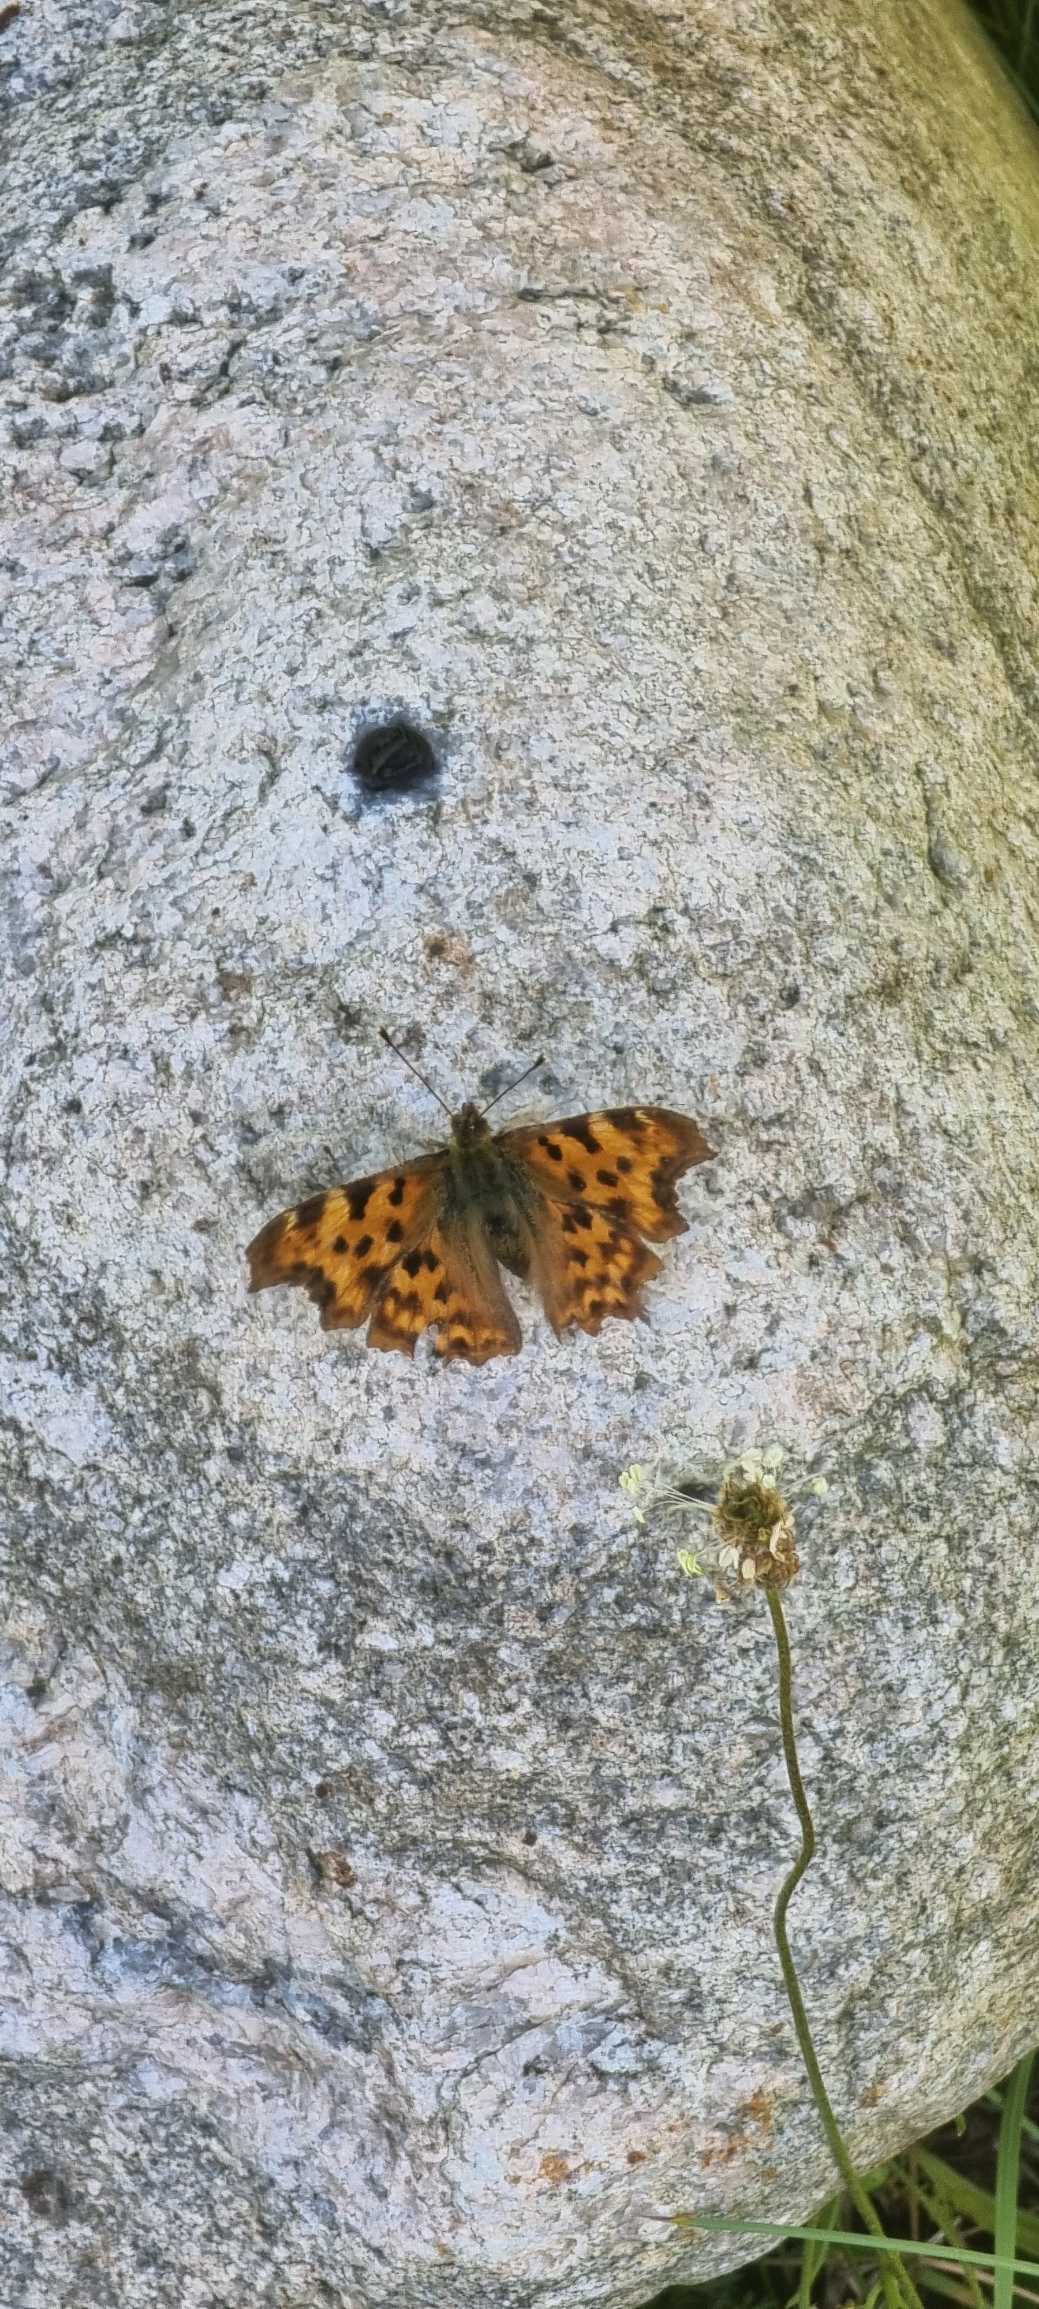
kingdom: Animalia
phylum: Arthropoda
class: Insecta
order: Lepidoptera
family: Nymphalidae
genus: Polygonia
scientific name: Polygonia c-album
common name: Det hvide C
